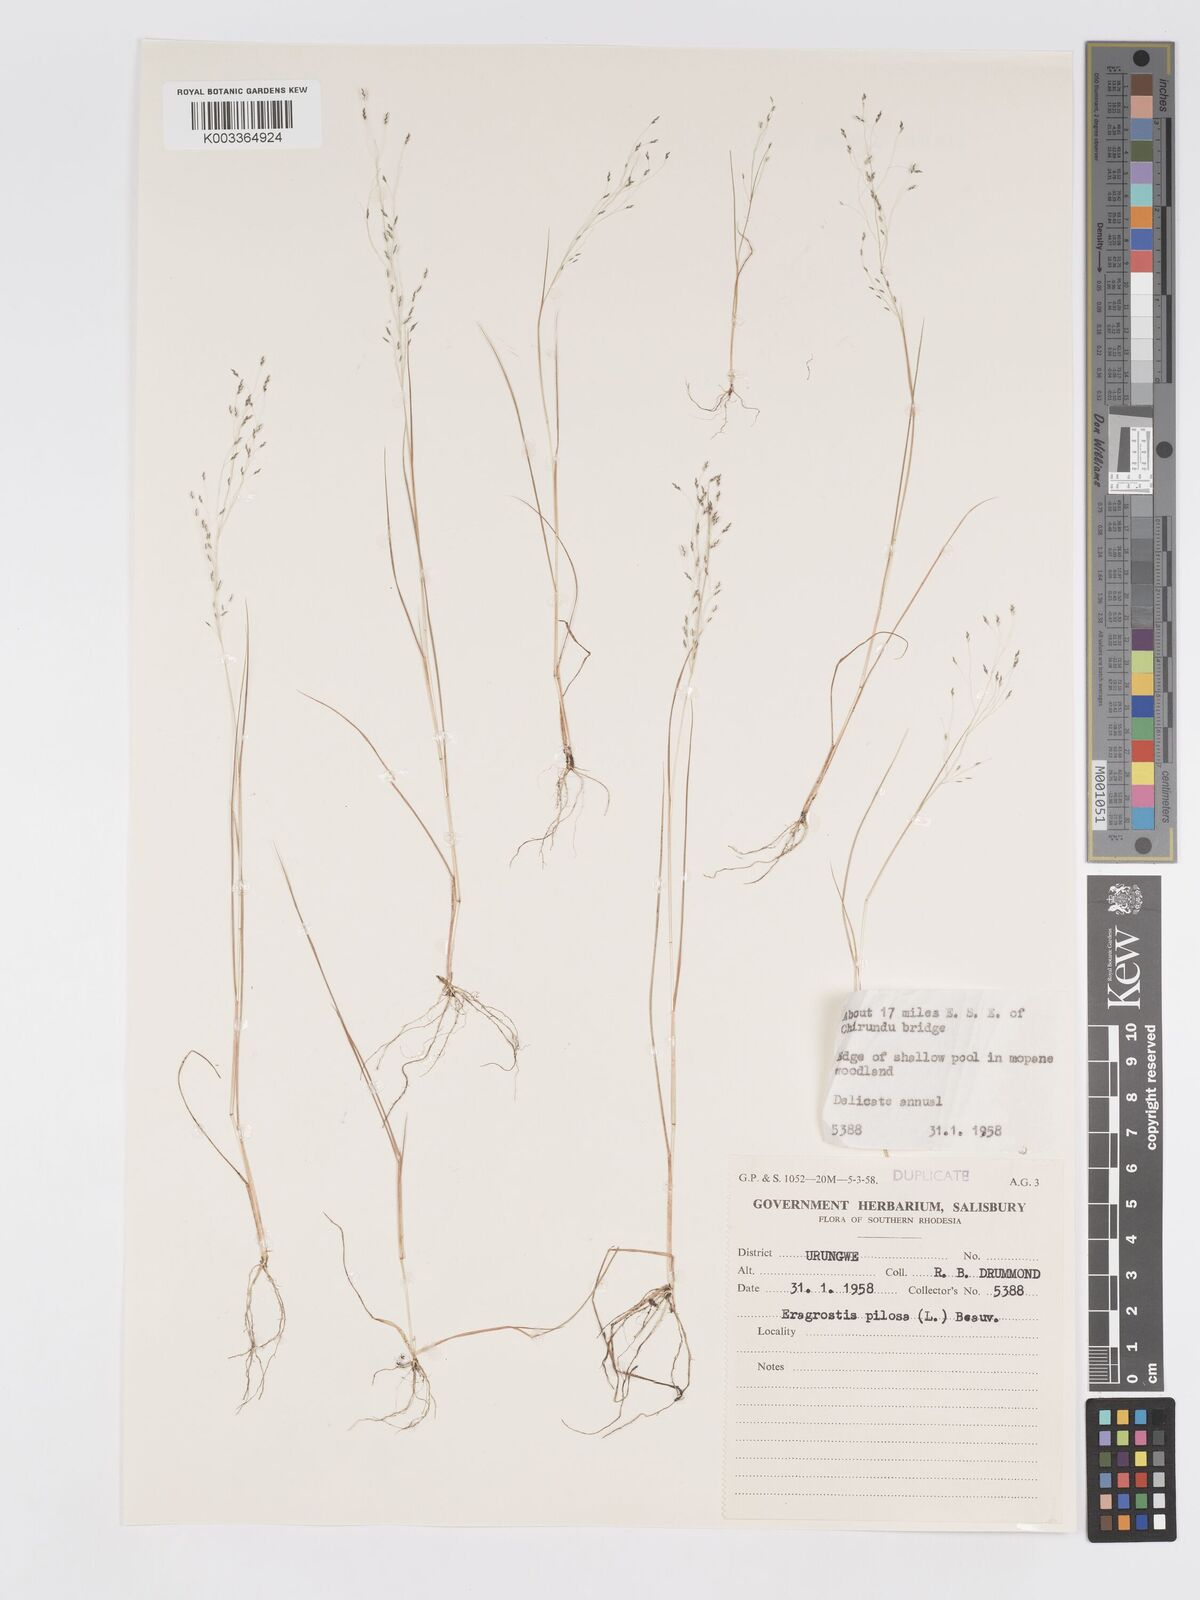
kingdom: Plantae
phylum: Tracheophyta
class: Liliopsida
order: Poales
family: Poaceae
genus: Eragrostis
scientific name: Eragrostis pilosa
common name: Indian lovegrass
